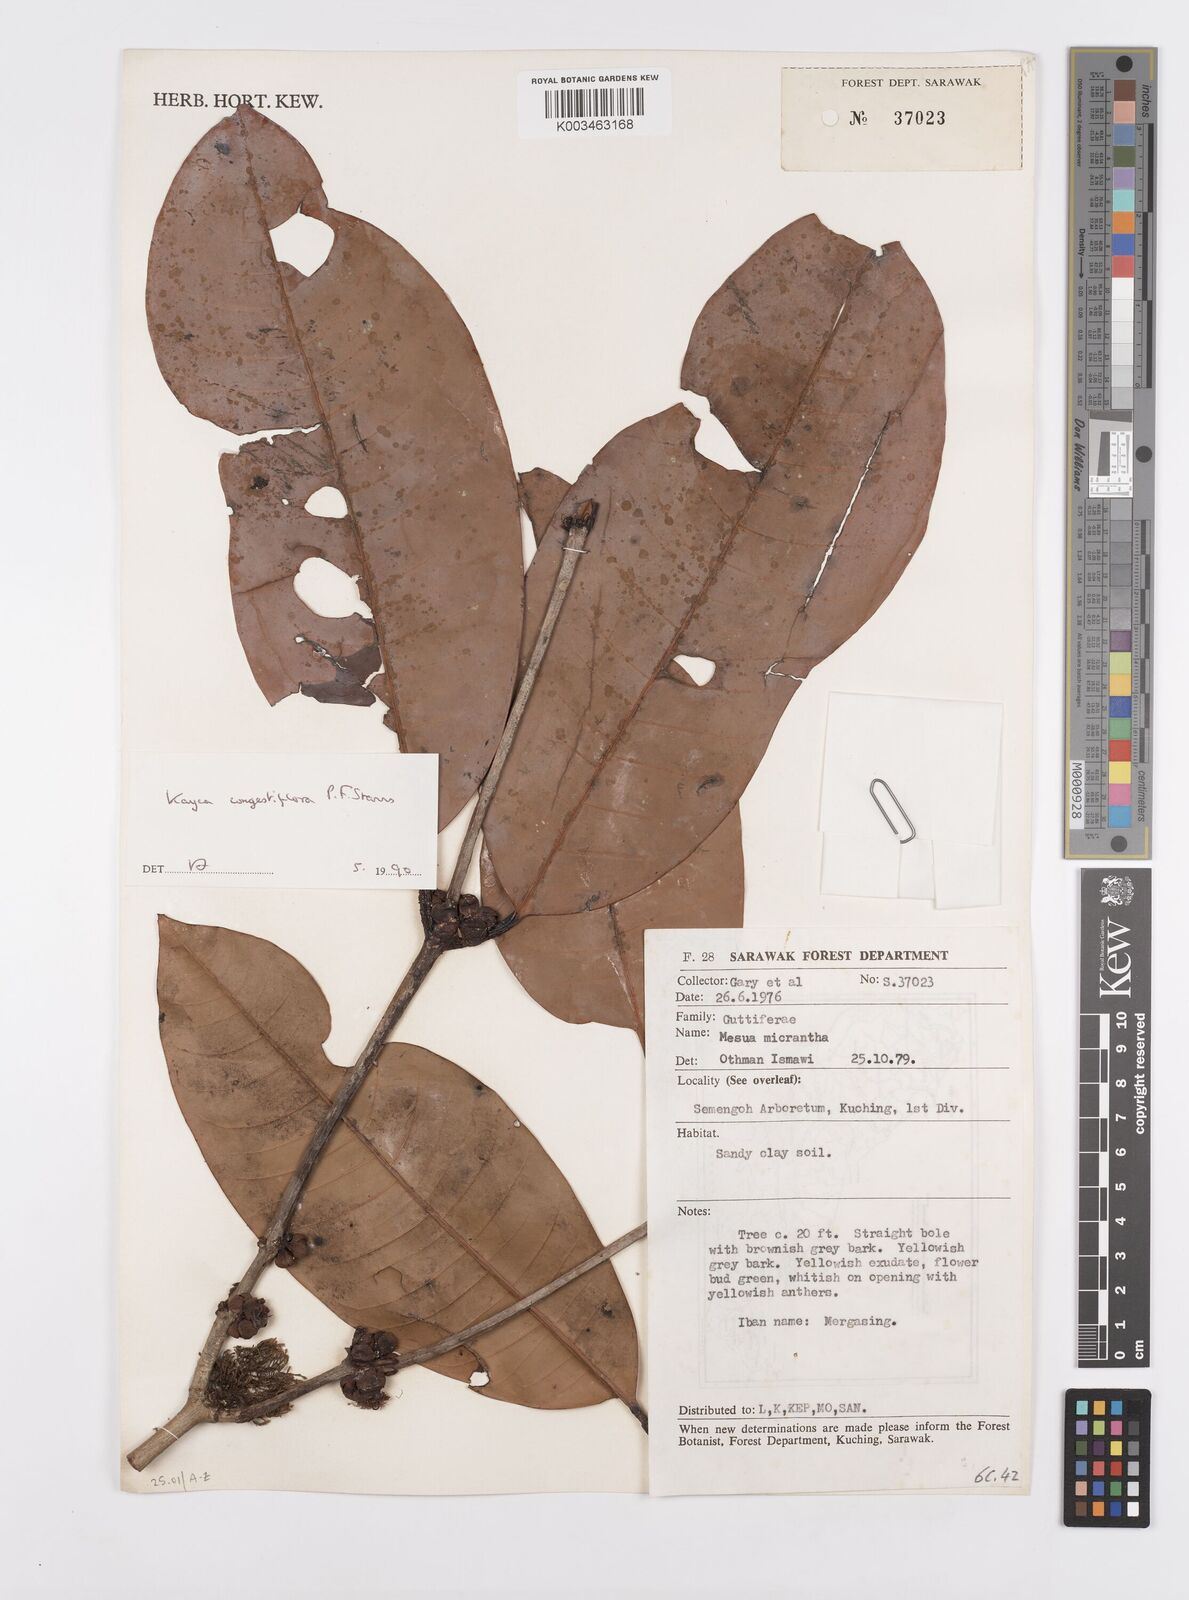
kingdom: Plantae
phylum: Tracheophyta
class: Magnoliopsida
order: Malpighiales
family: Calophyllaceae
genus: Kayea
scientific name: Kayea
